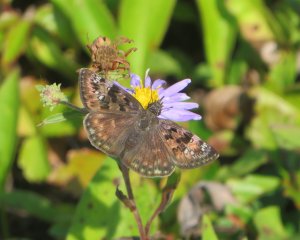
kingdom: Animalia
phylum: Arthropoda
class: Insecta
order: Lepidoptera
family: Hesperiidae
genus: Gesta
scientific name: Gesta
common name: Horace's Duskywing
